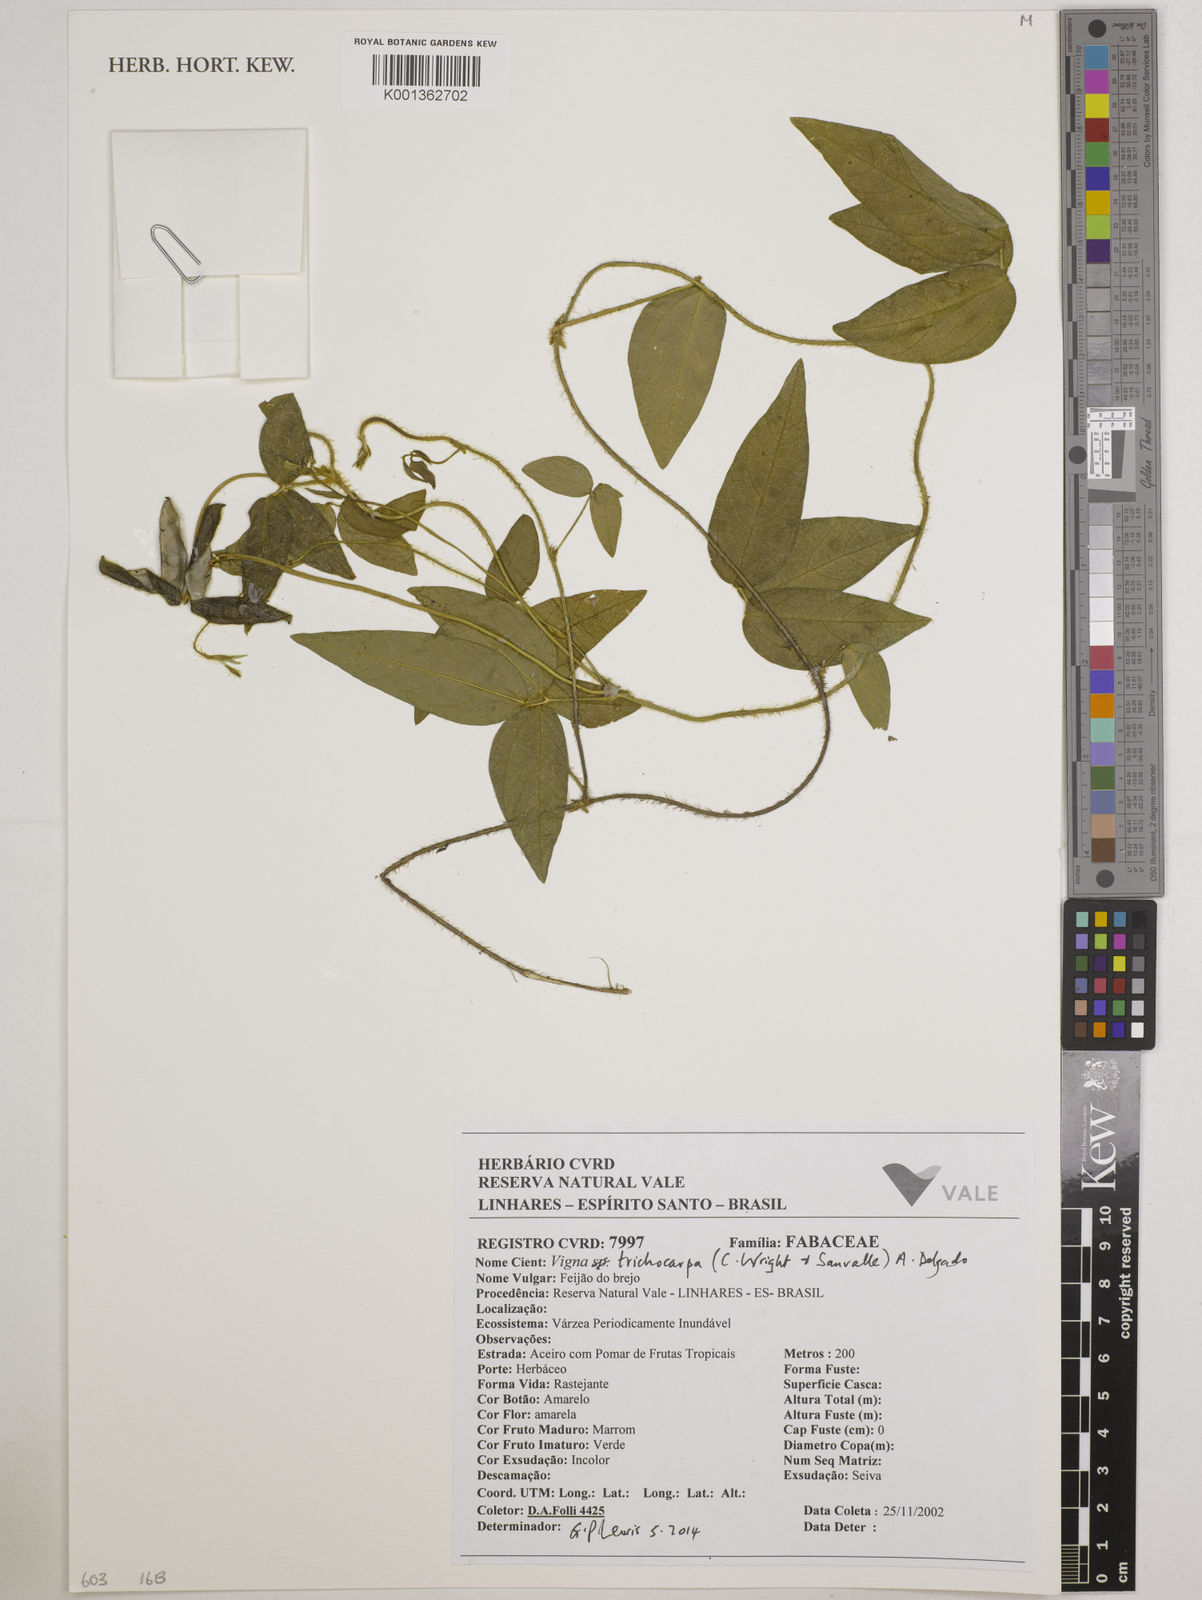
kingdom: Plantae
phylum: Tracheophyta
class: Magnoliopsida
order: Fabales
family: Fabaceae
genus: Vigna
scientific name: Vigna trichocarpa
